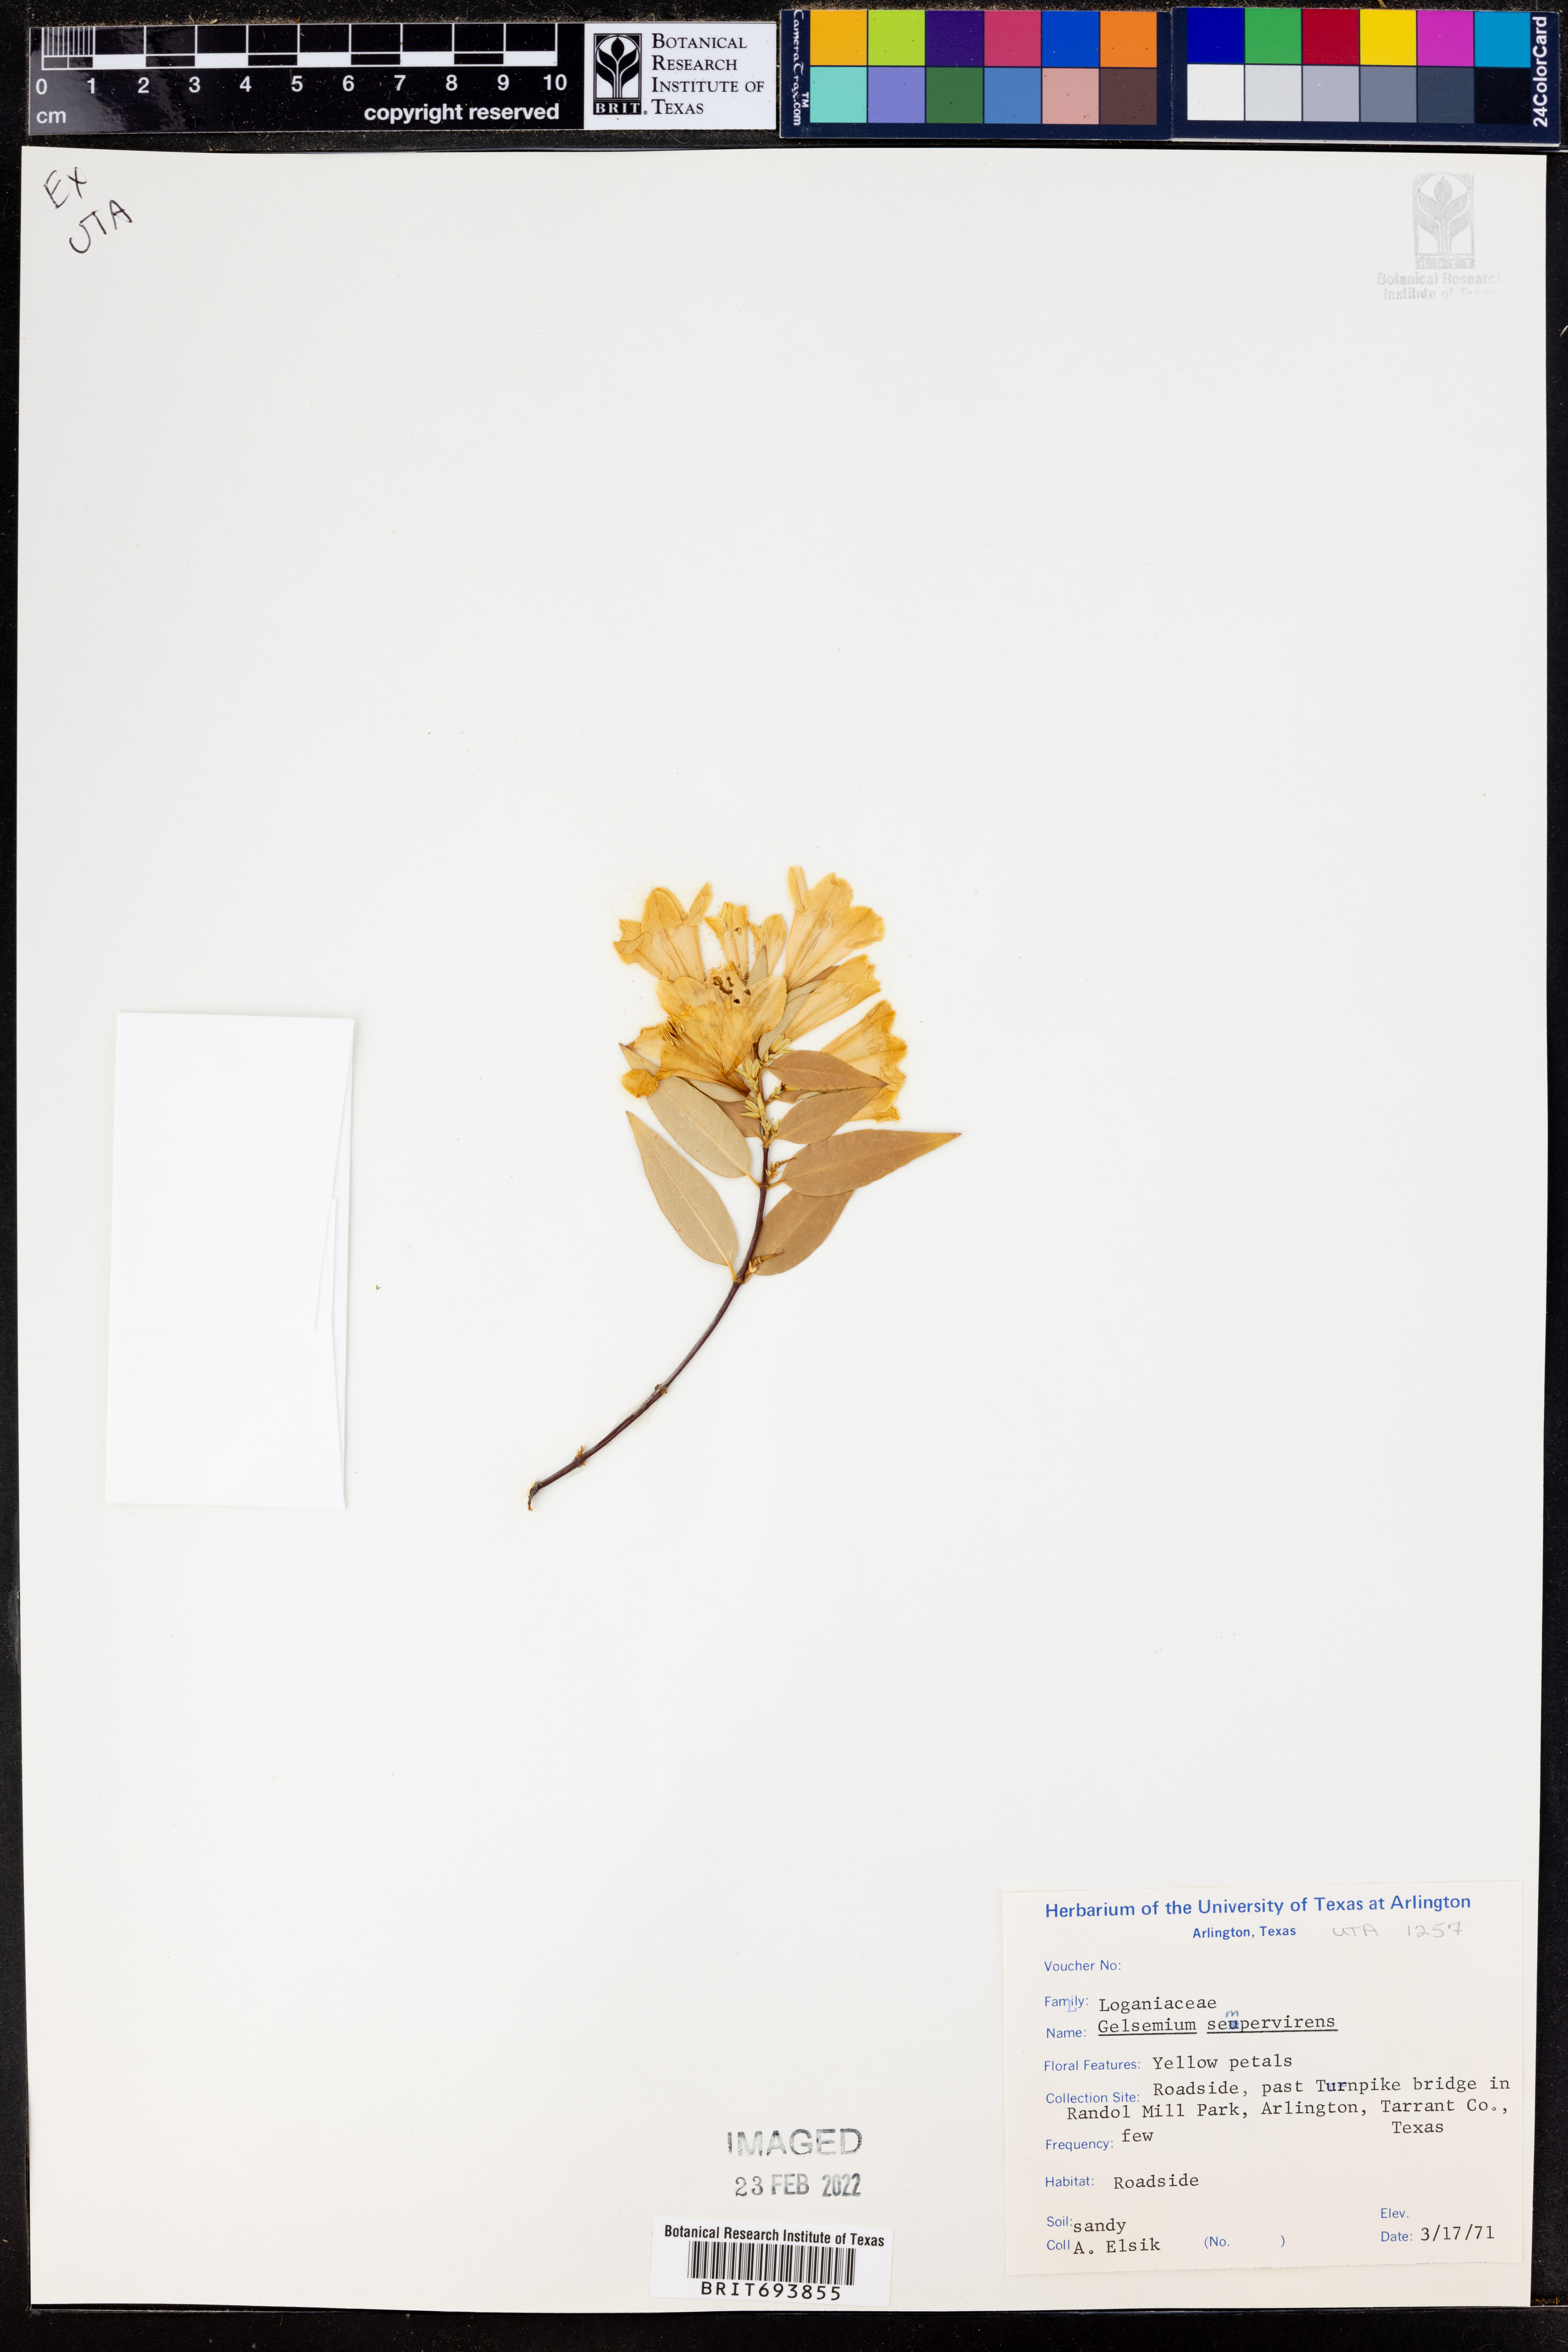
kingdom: Plantae
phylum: Tracheophyta
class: Magnoliopsida
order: Gentianales
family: Gelsemiaceae
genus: Gelsemium
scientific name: Gelsemium sempervirens
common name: Carolina-jasmine
